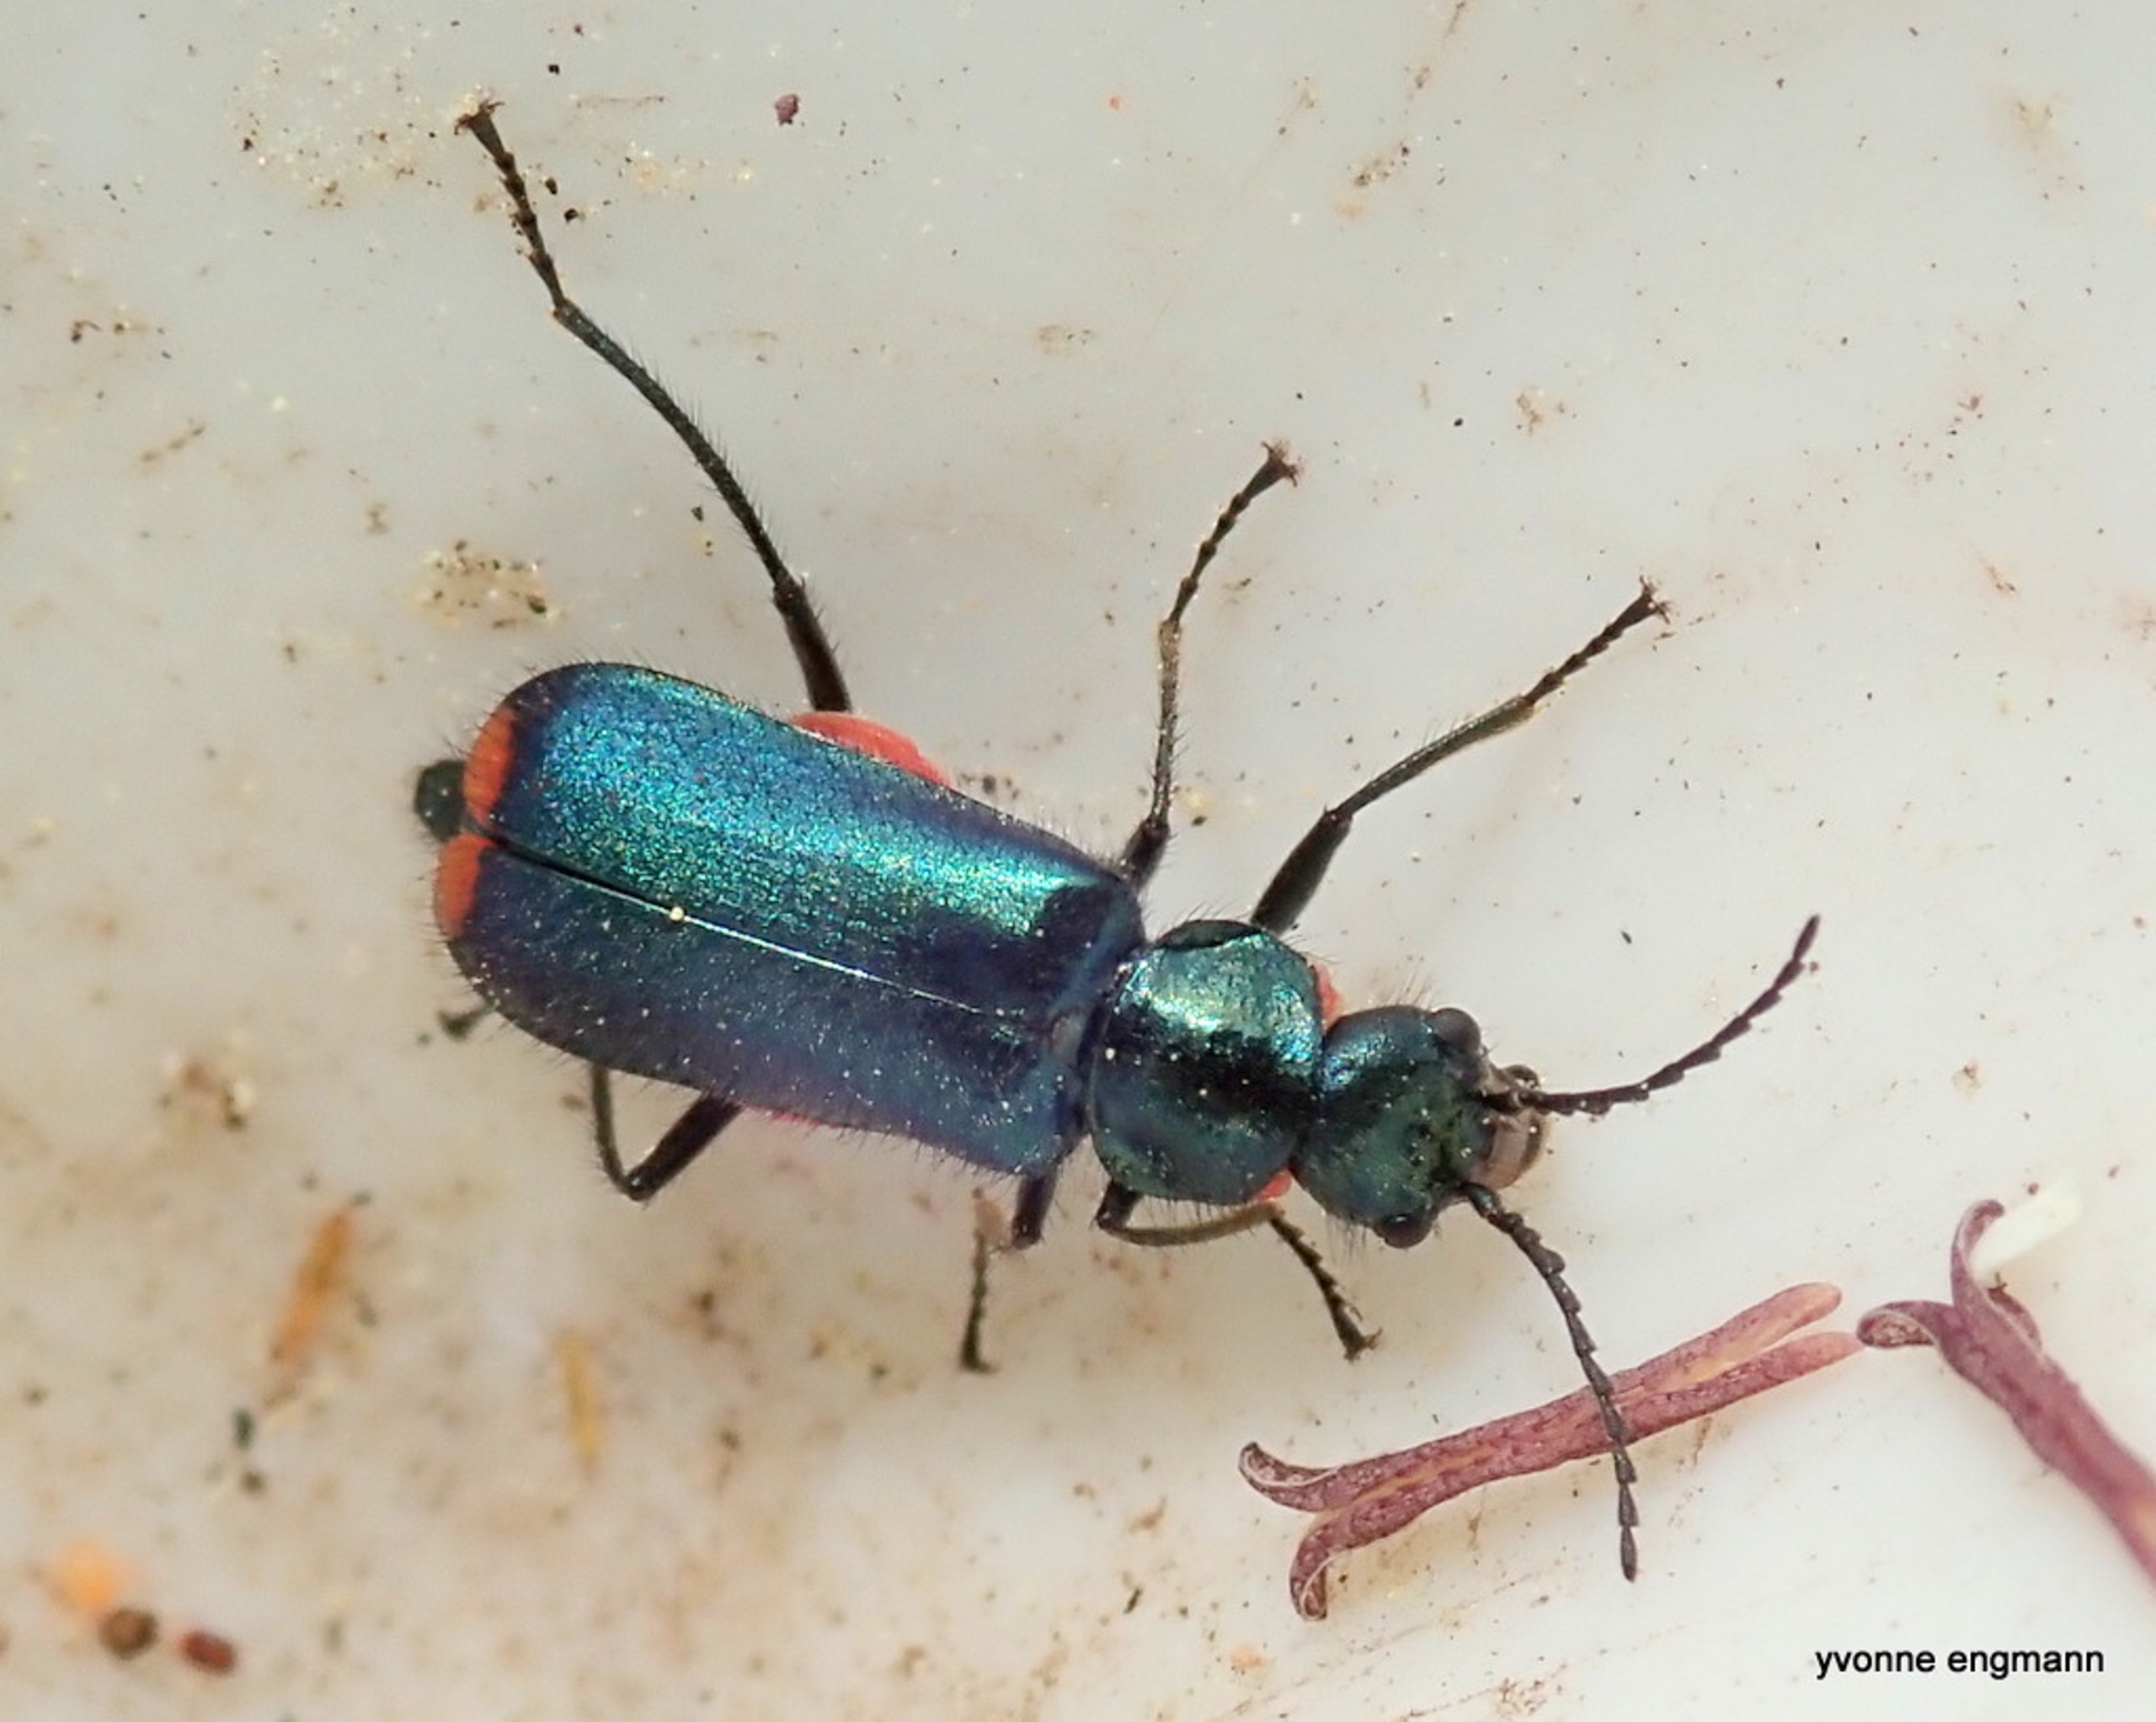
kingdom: Animalia
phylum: Arthropoda
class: Insecta
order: Coleoptera
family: Melyridae
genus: Malachius
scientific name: Malachius bipustulatus
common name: Skovmalakitbille
